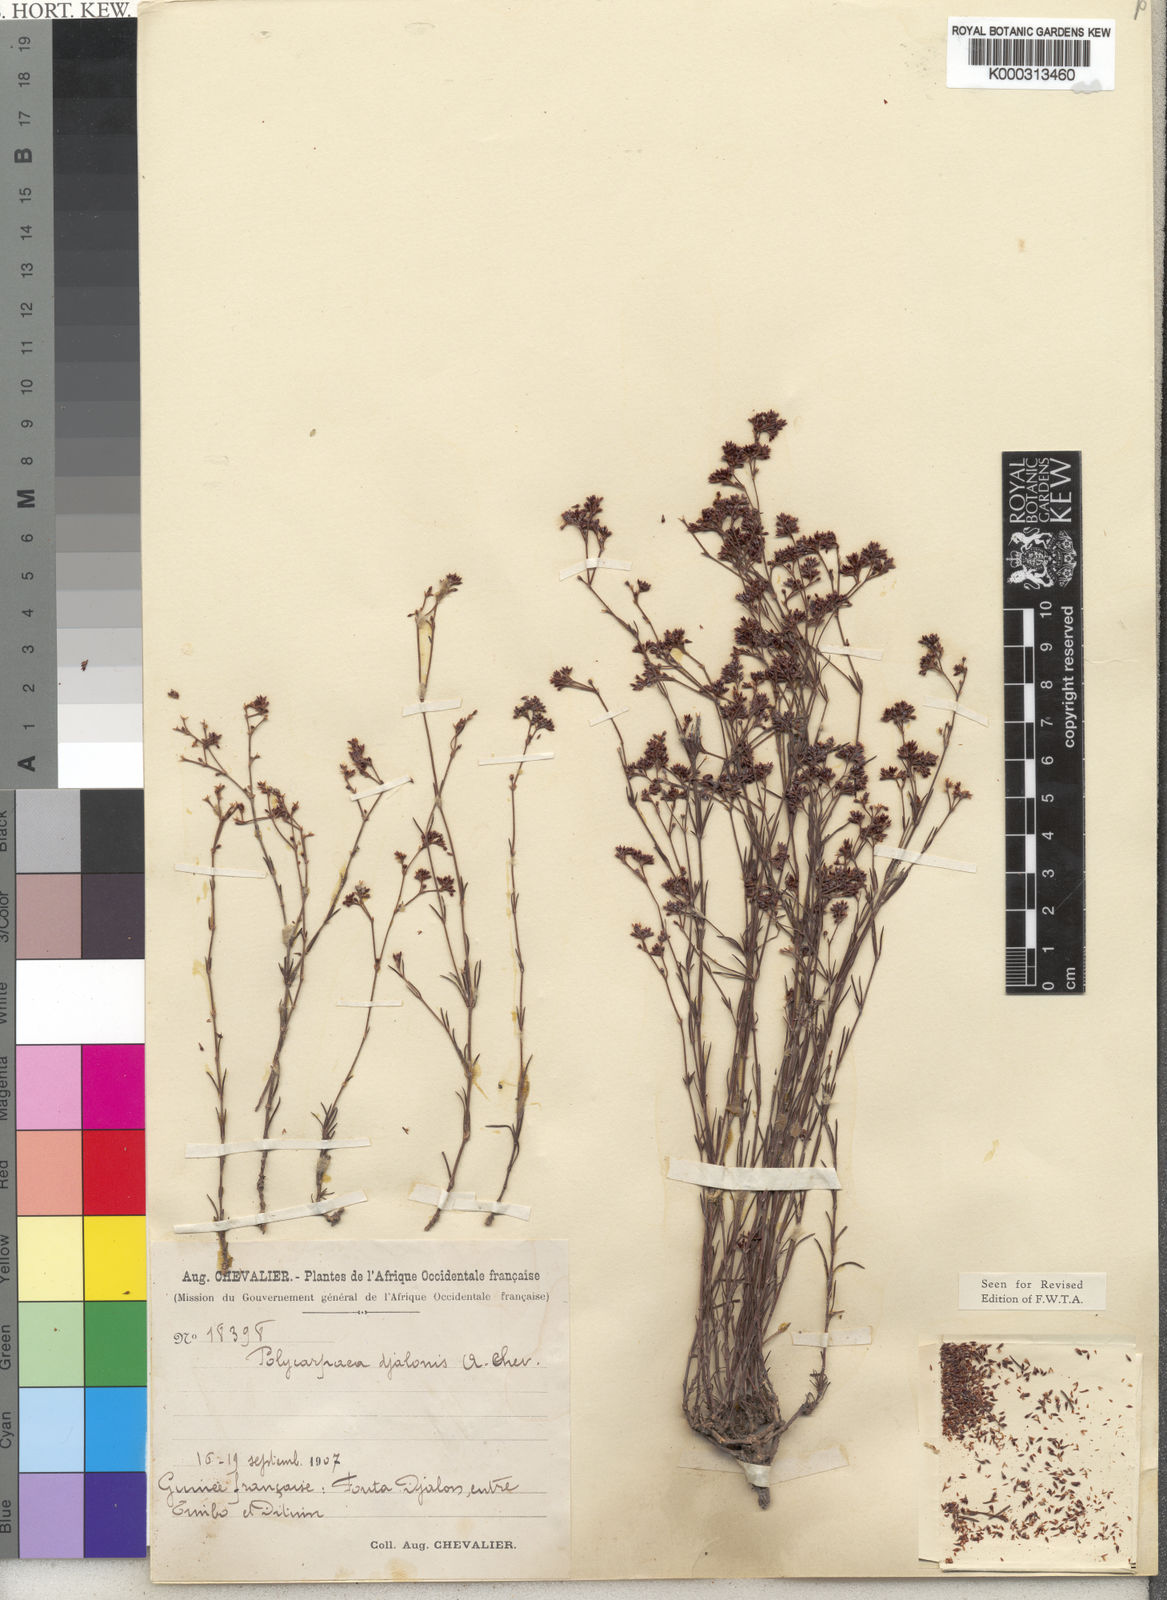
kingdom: Plantae
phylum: Tracheophyta
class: Magnoliopsida
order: Caryophyllales
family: Caryophyllaceae
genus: Polycarpaea
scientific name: Polycarpaea
